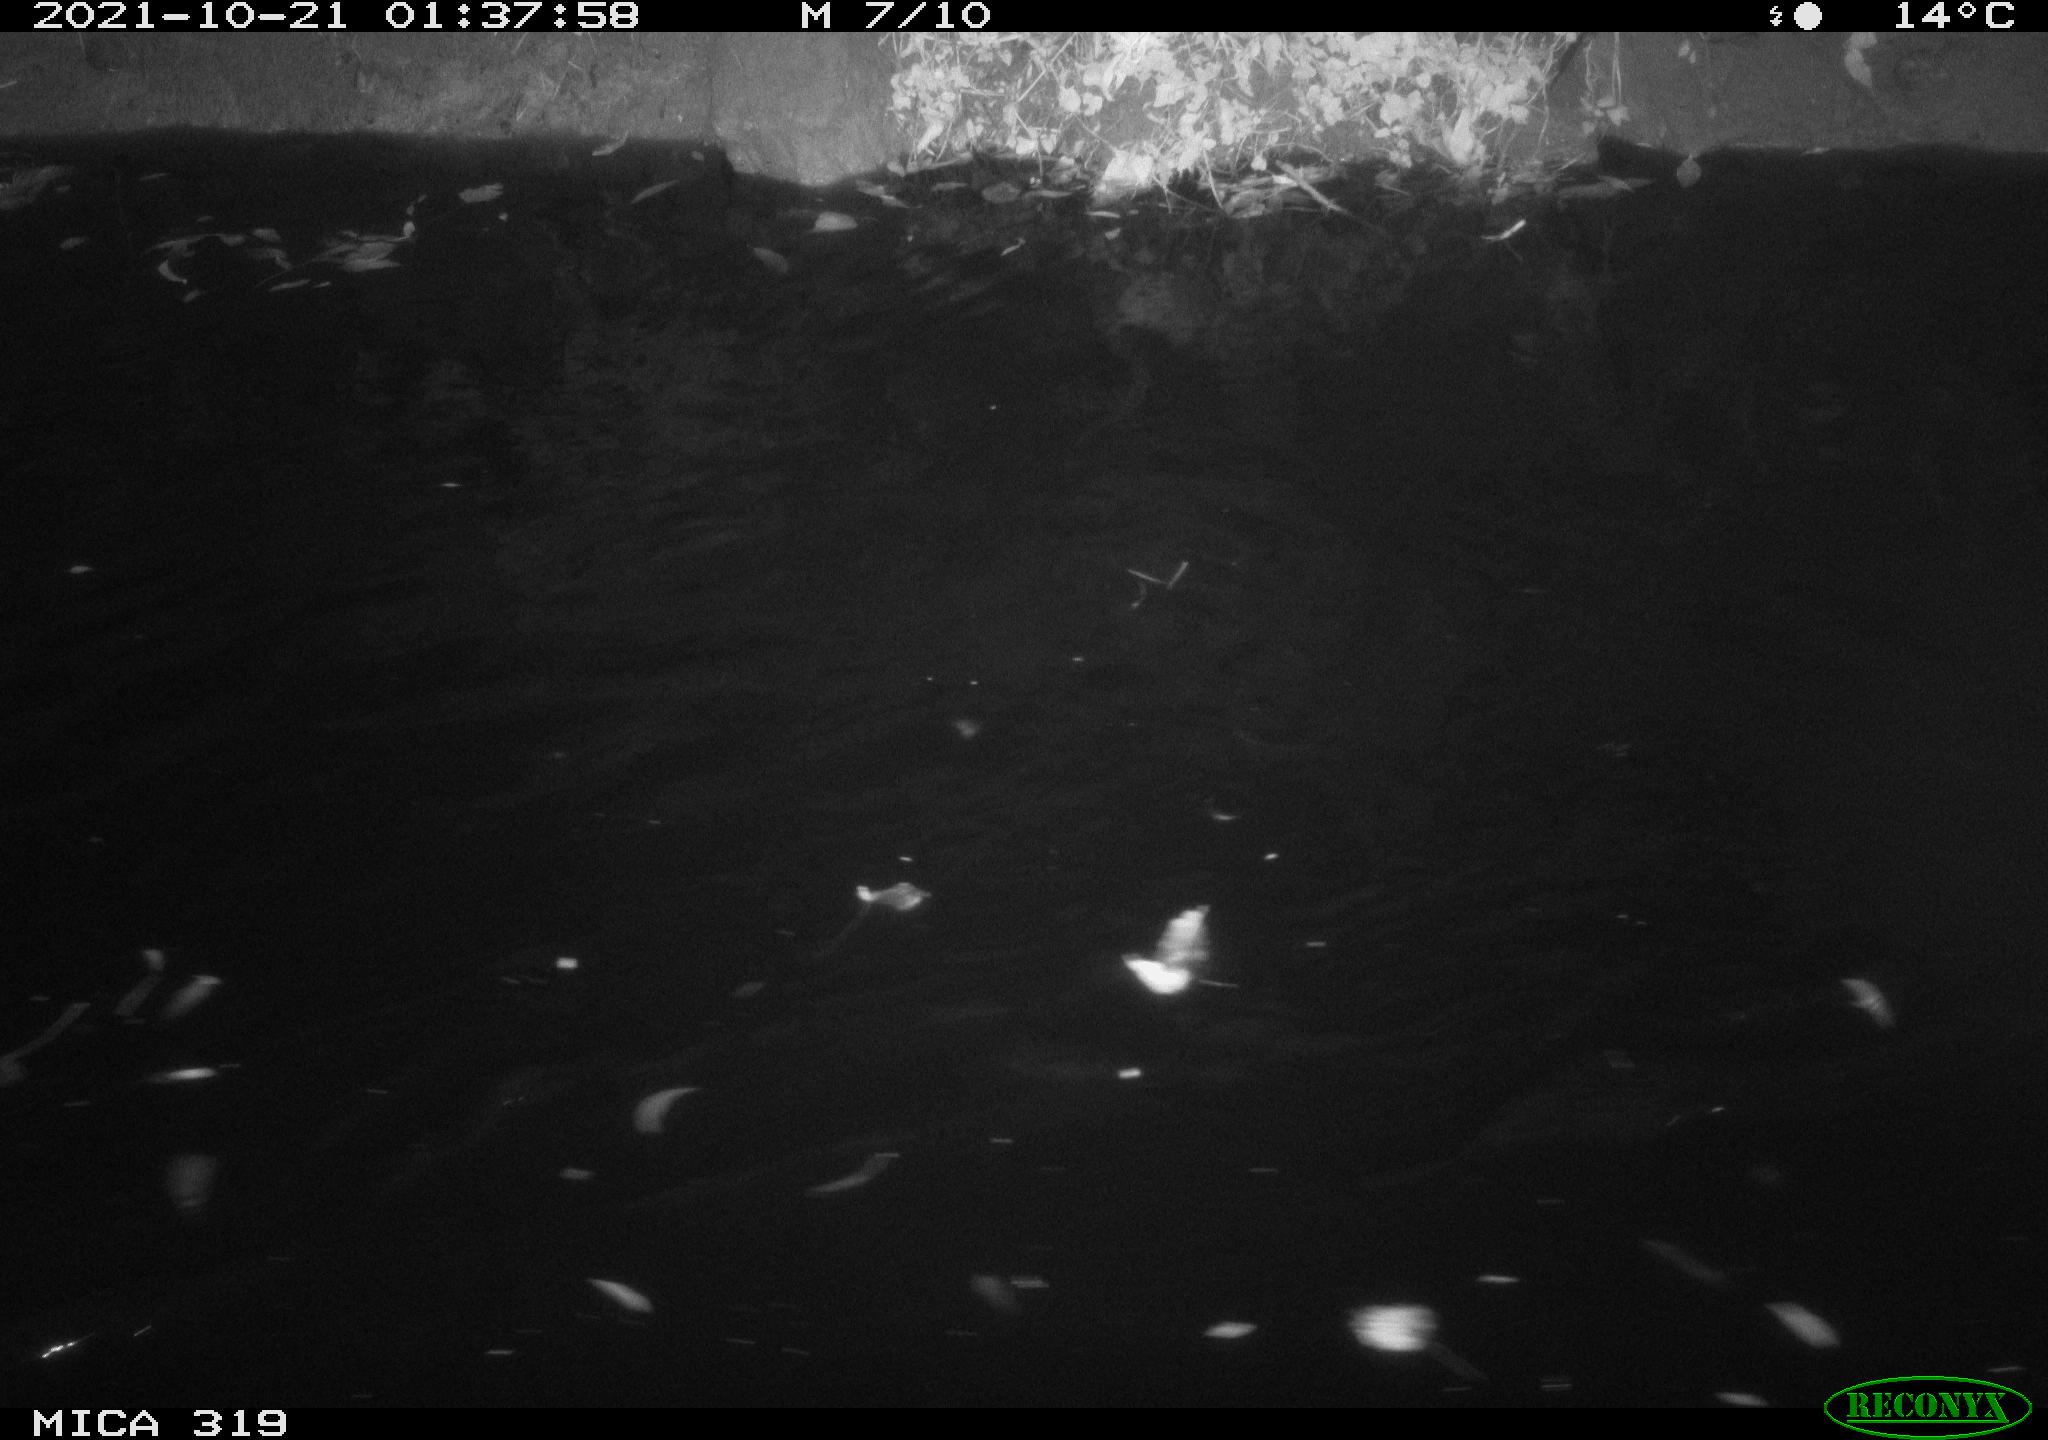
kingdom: Animalia
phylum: Chordata
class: Aves
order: Anseriformes
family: Anatidae
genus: Anas
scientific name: Anas platyrhynchos
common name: Mallard
